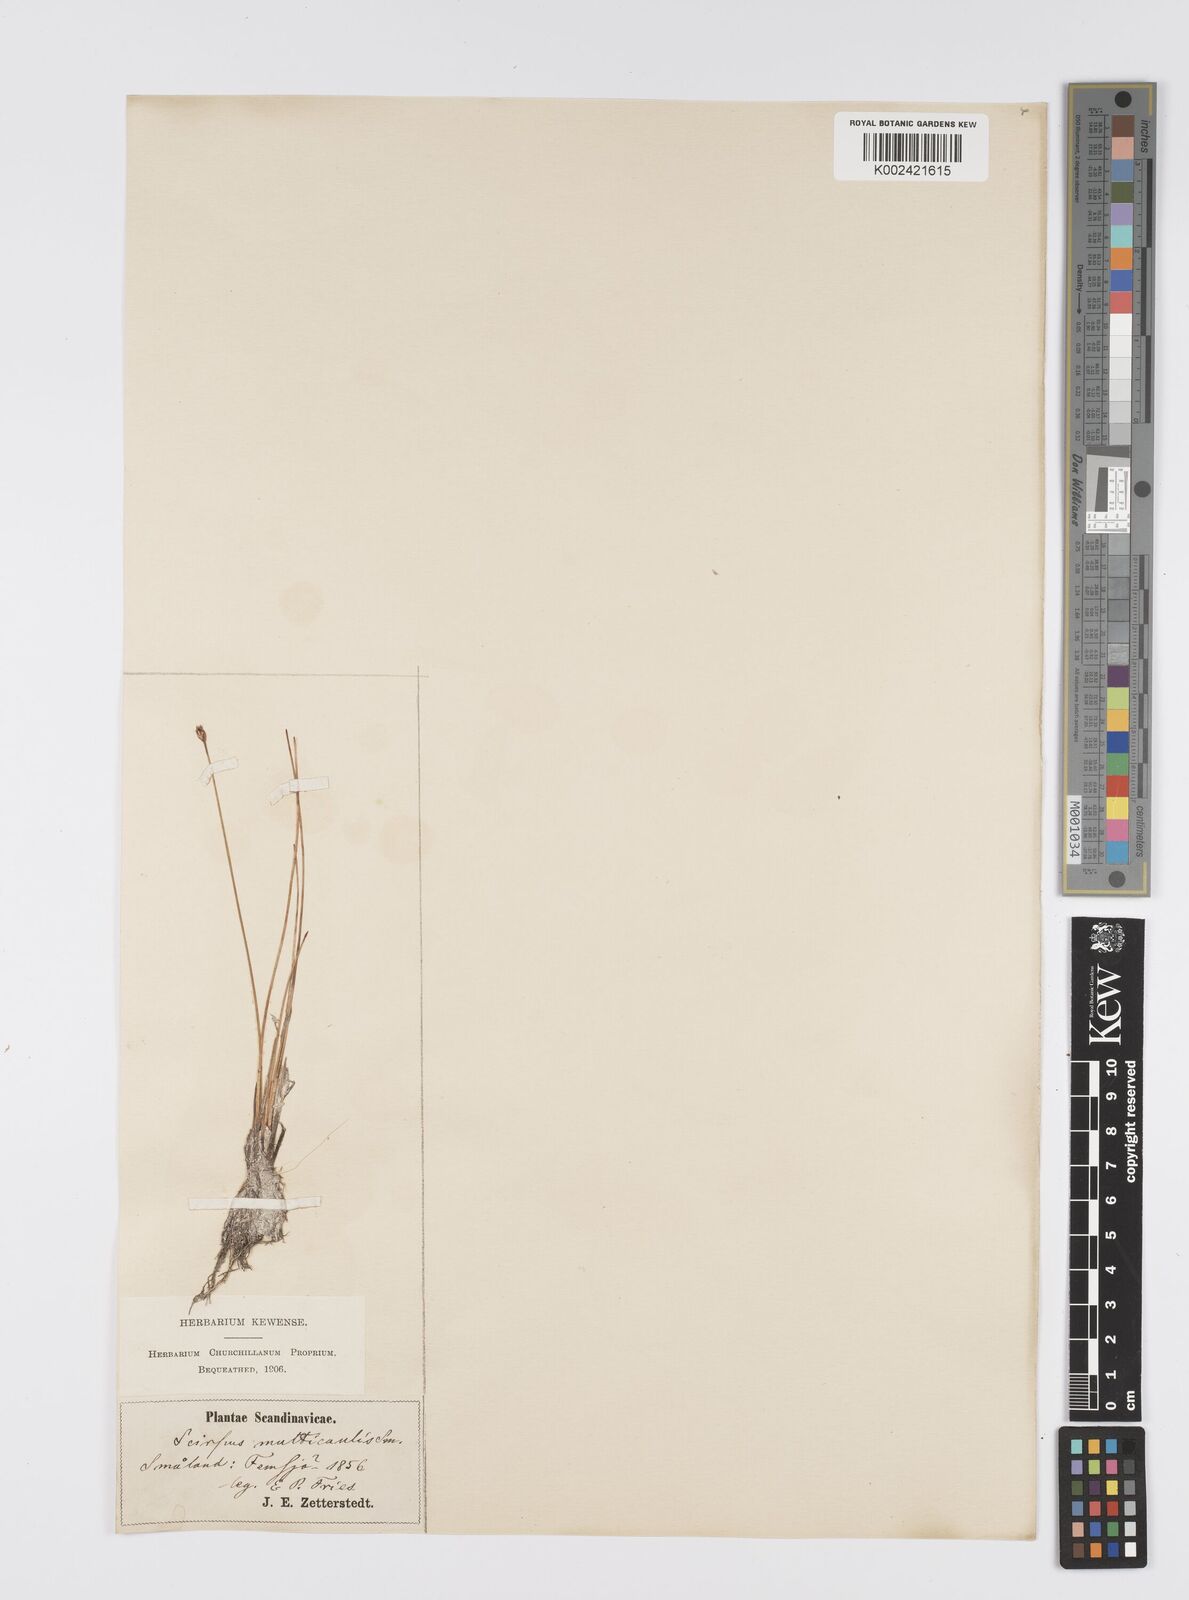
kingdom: Plantae
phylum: Tracheophyta
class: Liliopsida
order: Poales
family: Cyperaceae
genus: Eleocharis
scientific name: Eleocharis multicaulis
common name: Many-stalked spike-rush
